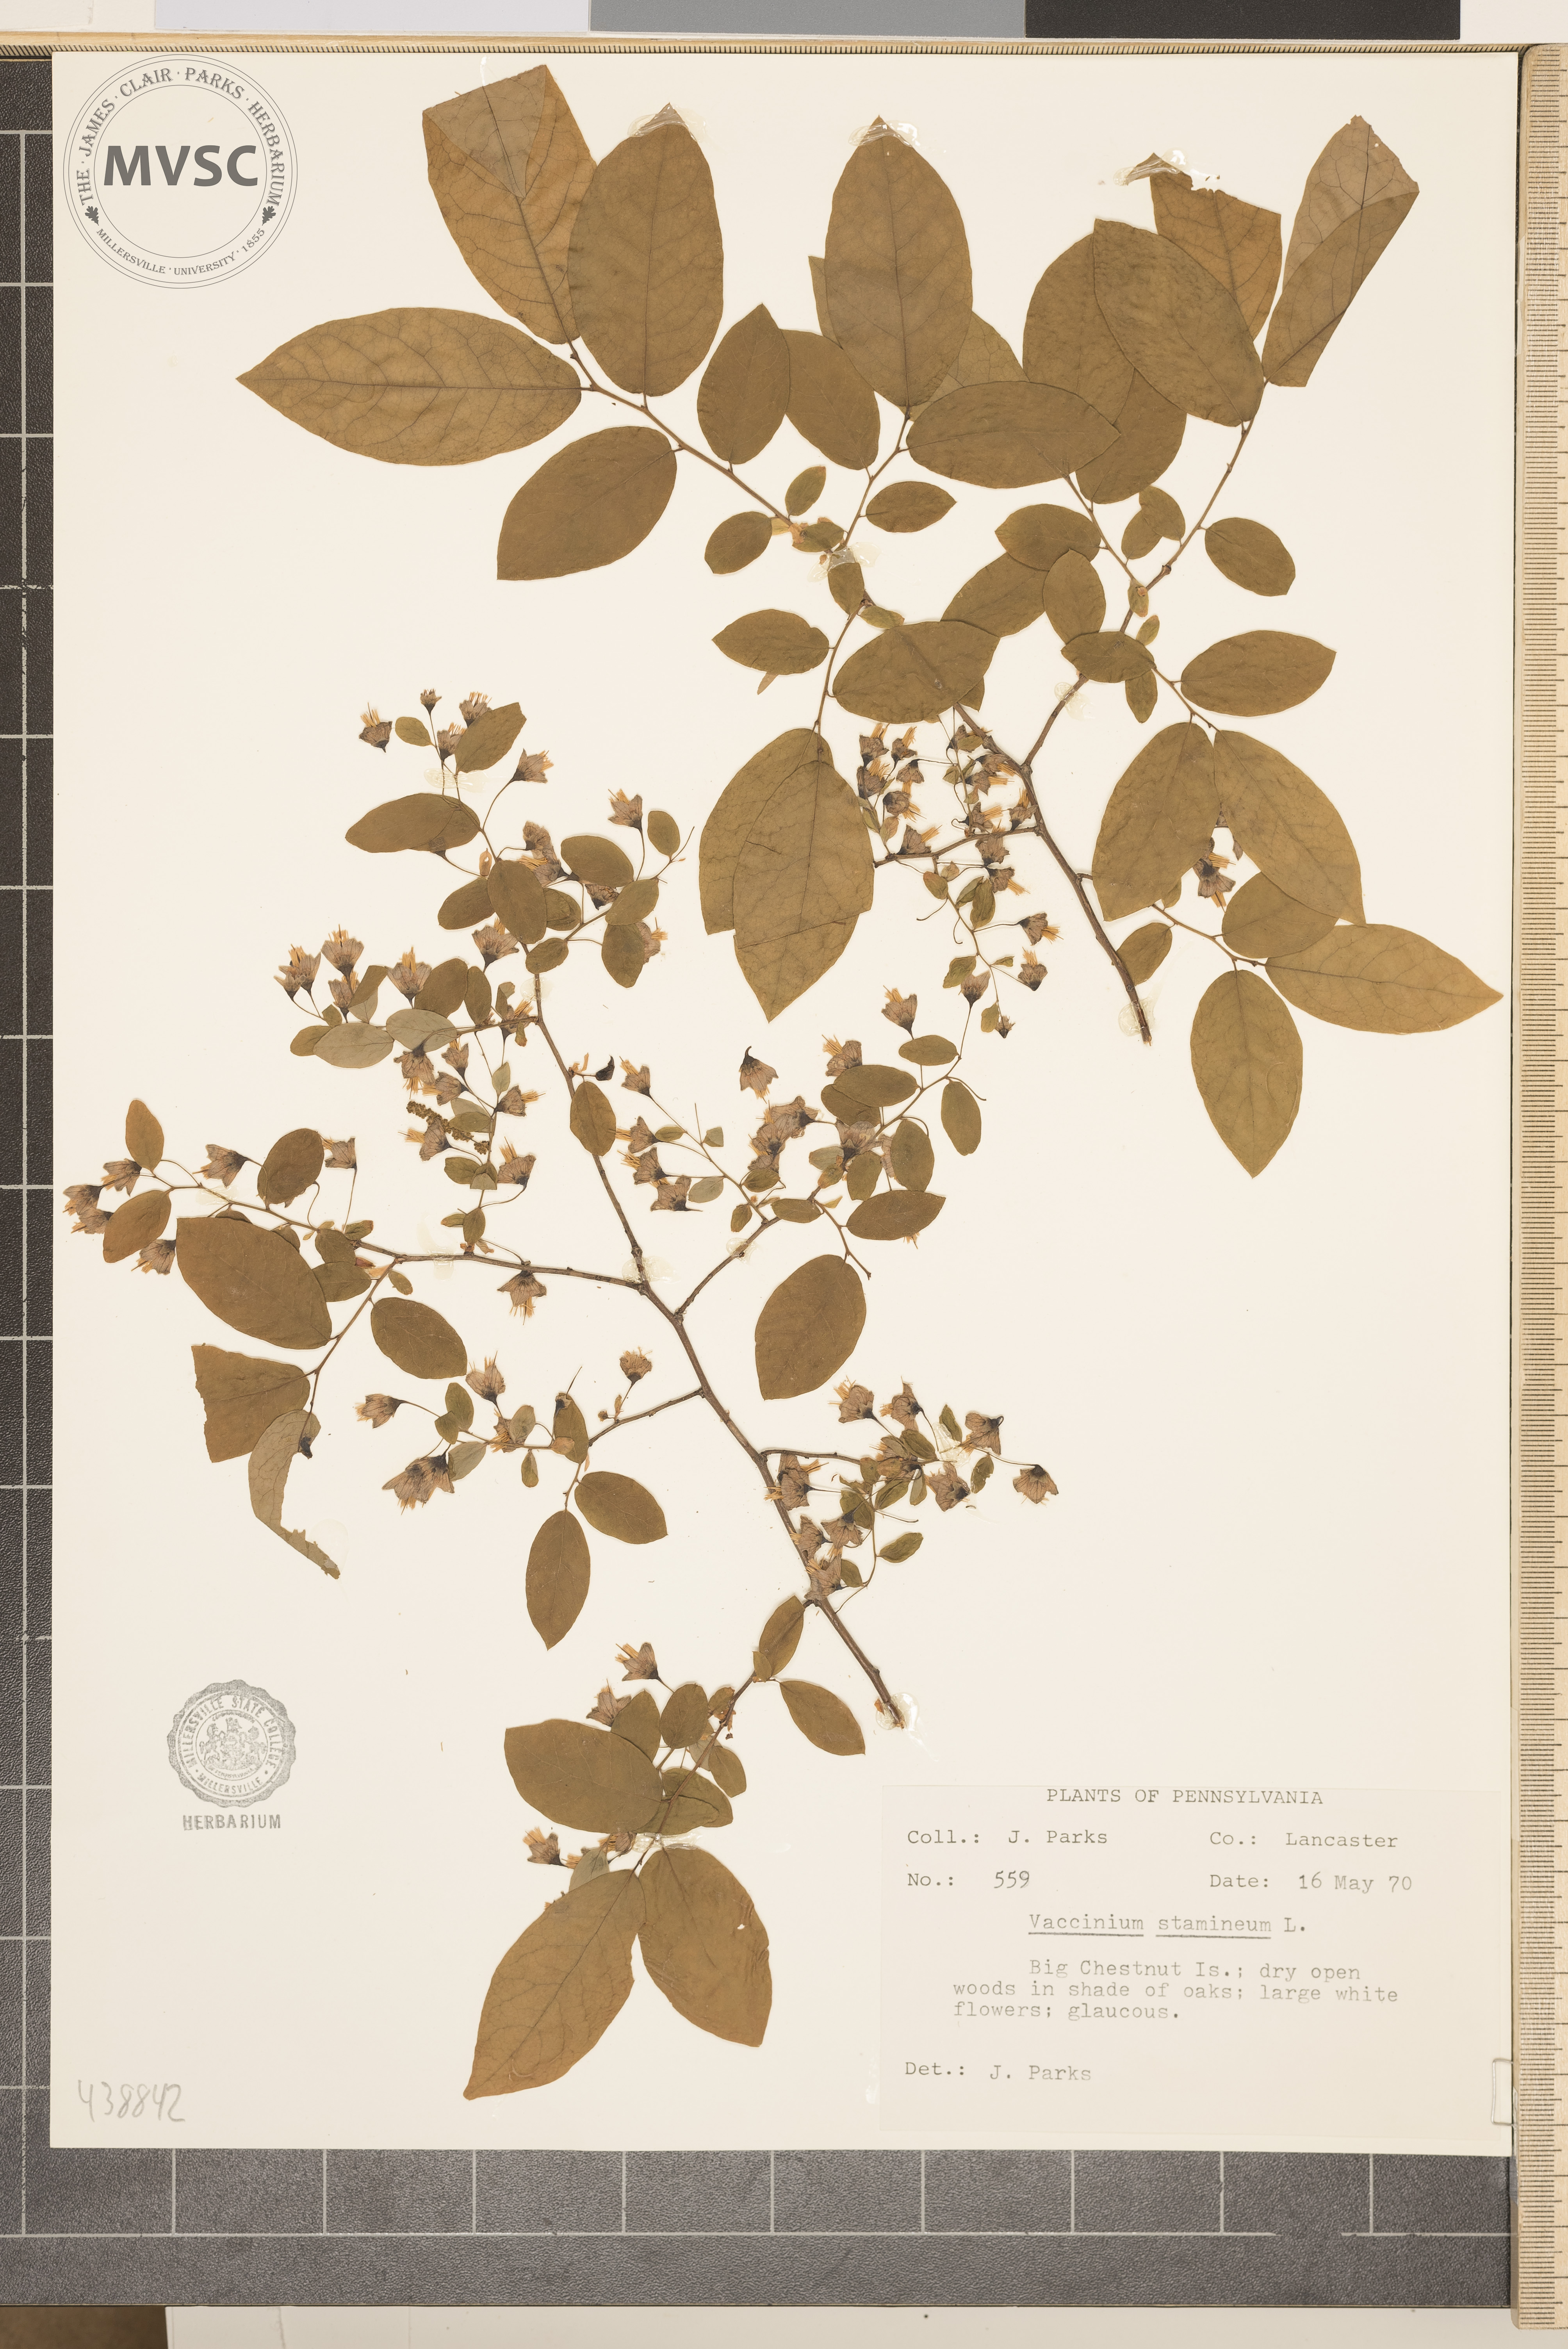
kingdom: Plantae
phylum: Tracheophyta
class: Magnoliopsida
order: Ericales
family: Ericaceae
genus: Vaccinium
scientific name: Vaccinium stamineum
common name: Deerberry
